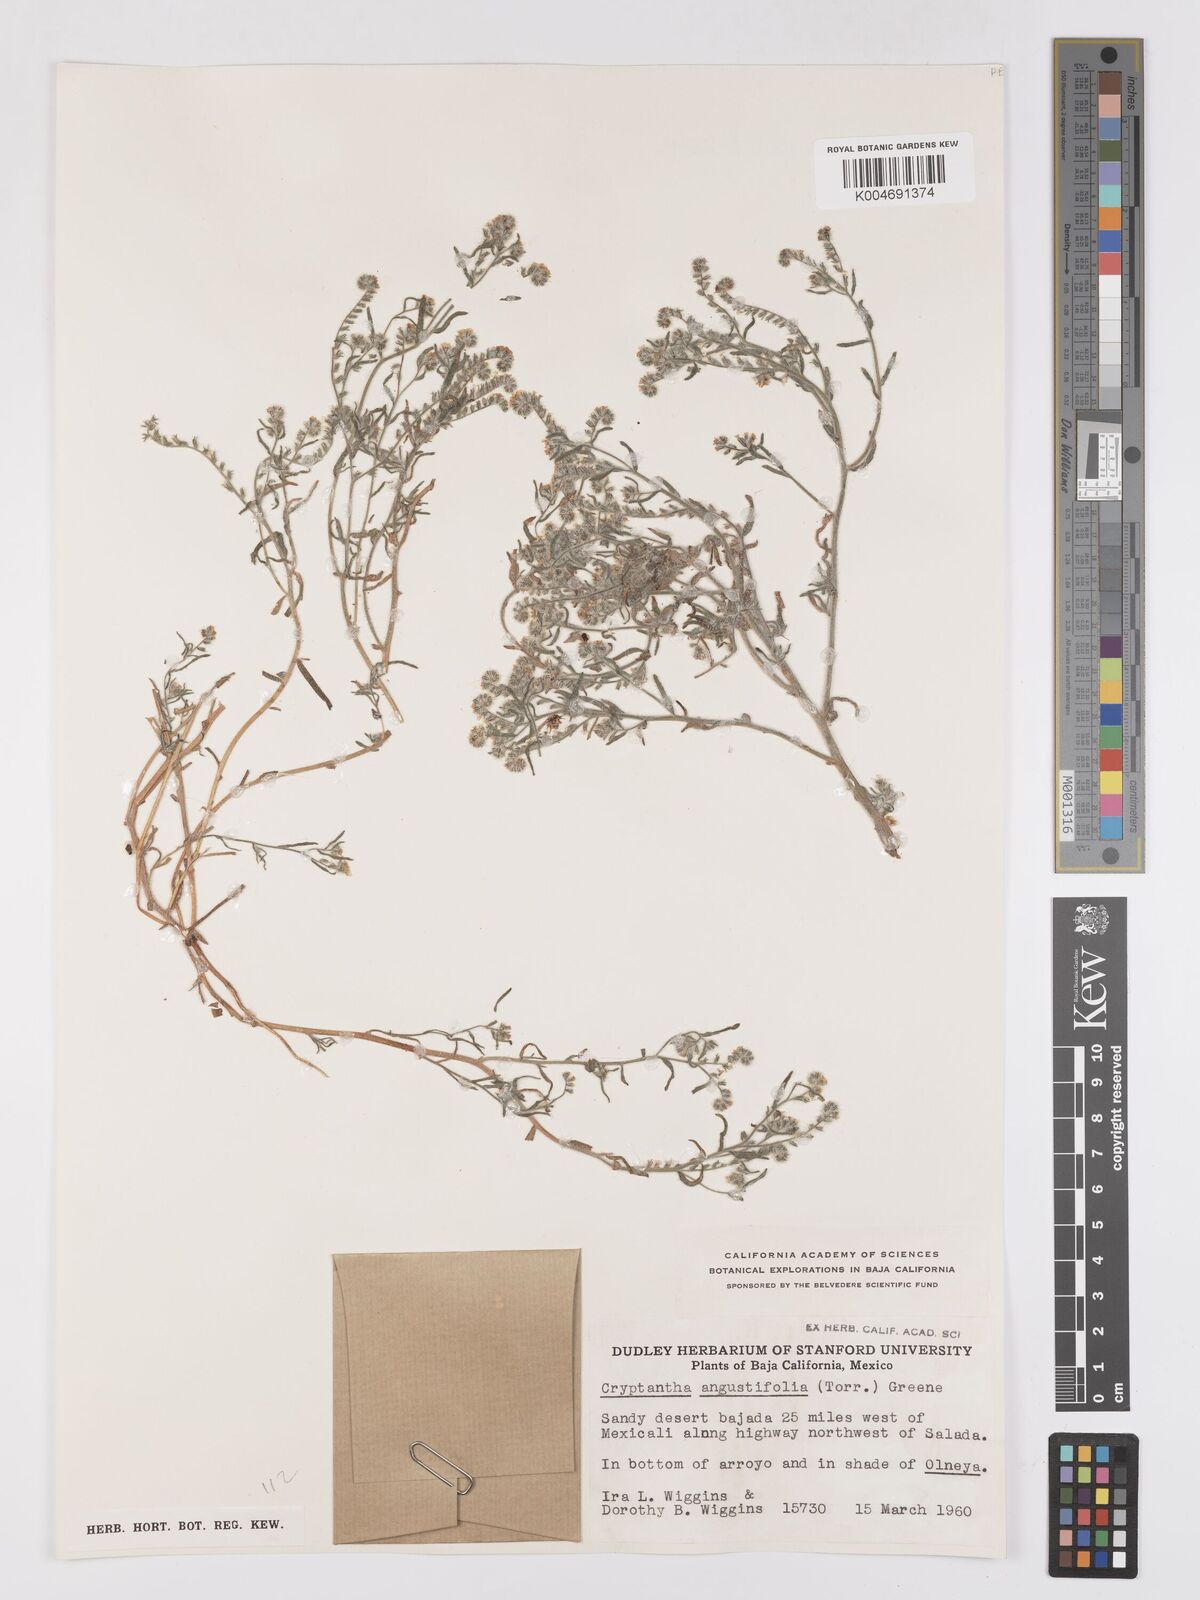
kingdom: Plantae
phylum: Tracheophyta
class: Magnoliopsida
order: Boraginales
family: Boraginaceae
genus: Johnstonella
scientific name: Johnstonella angustifolia
